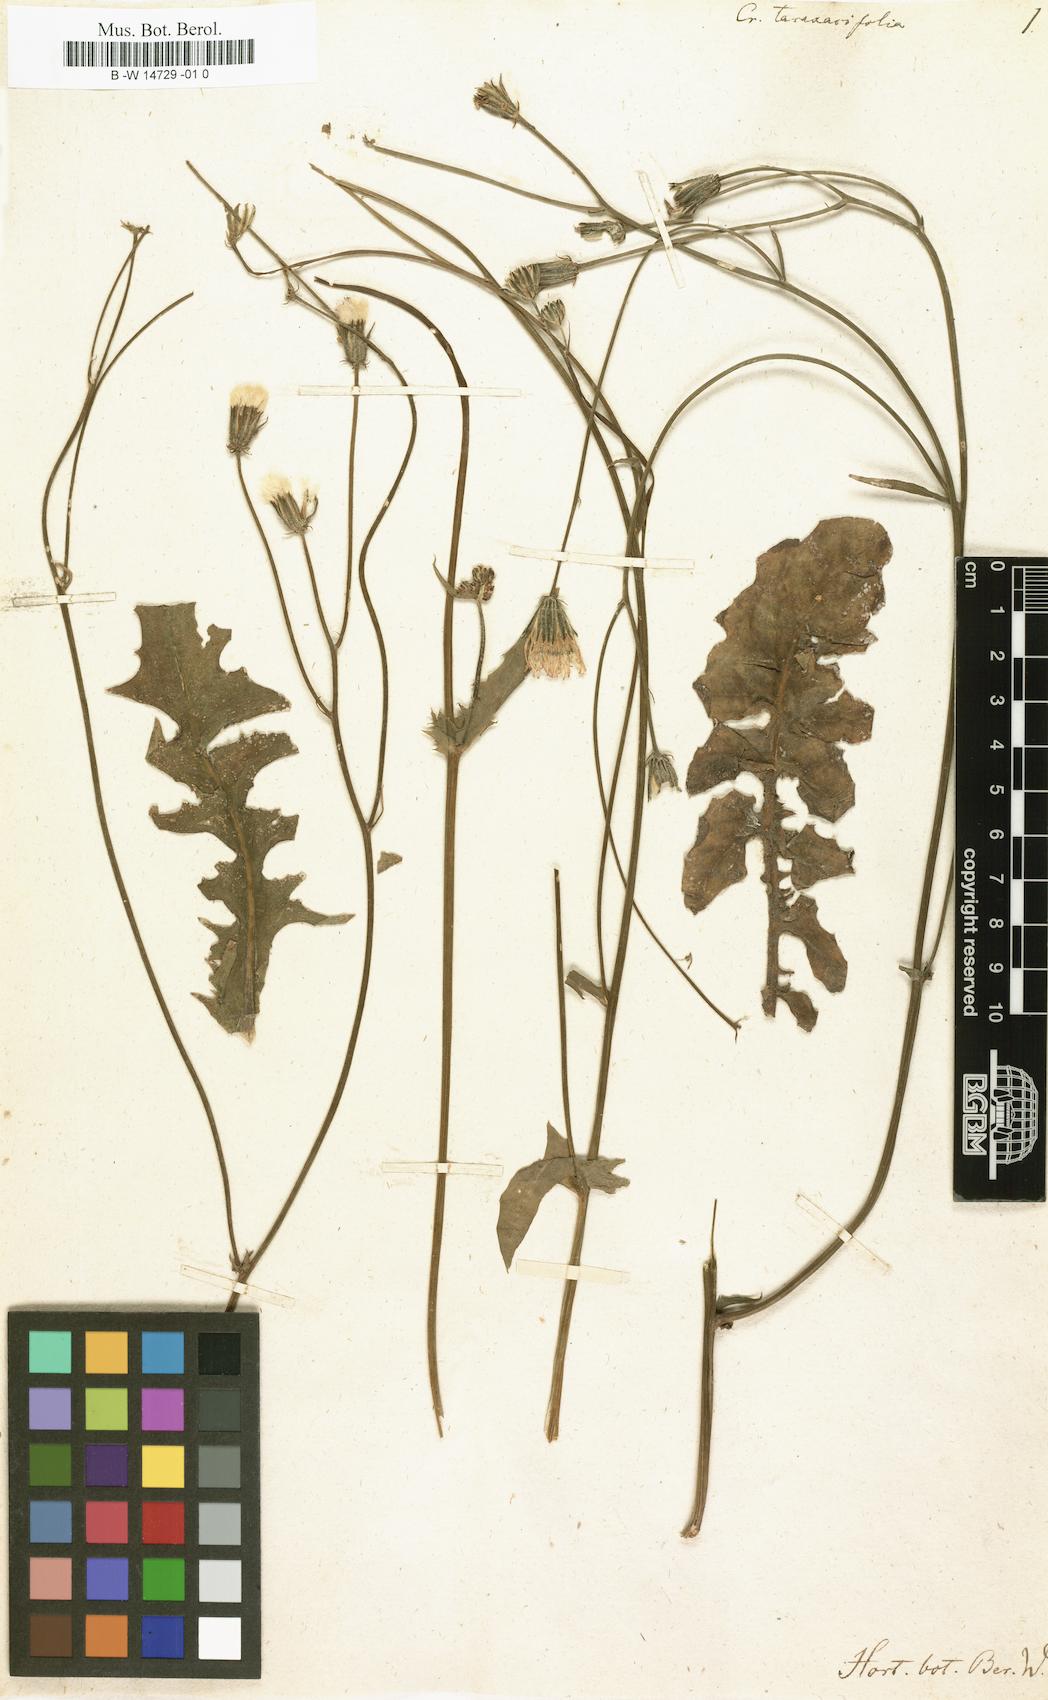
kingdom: Plantae
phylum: Tracheophyta
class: Magnoliopsida
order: Asterales
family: Asteraceae
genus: Crepis
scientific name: Crepis vesicaria
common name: Beaked hawksbeard
